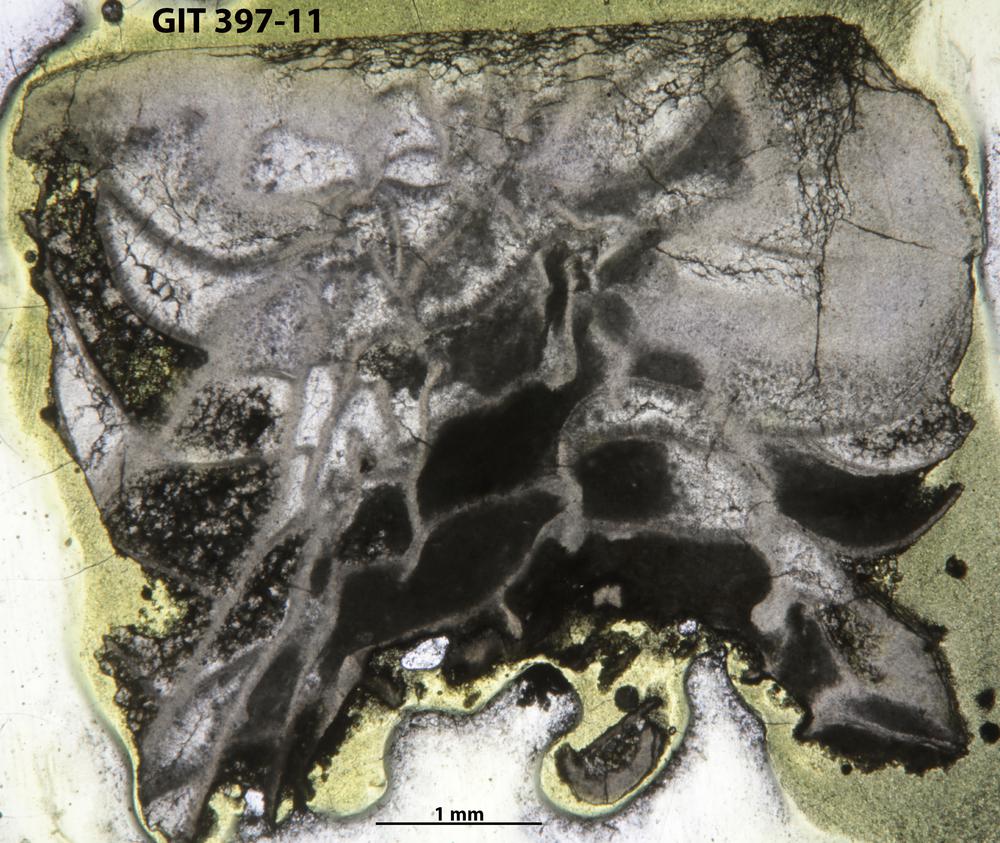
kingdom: Animalia
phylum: Cnidaria
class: Anthozoa
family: Streptelasmatidae
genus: Streptelasma
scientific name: Streptelasma
